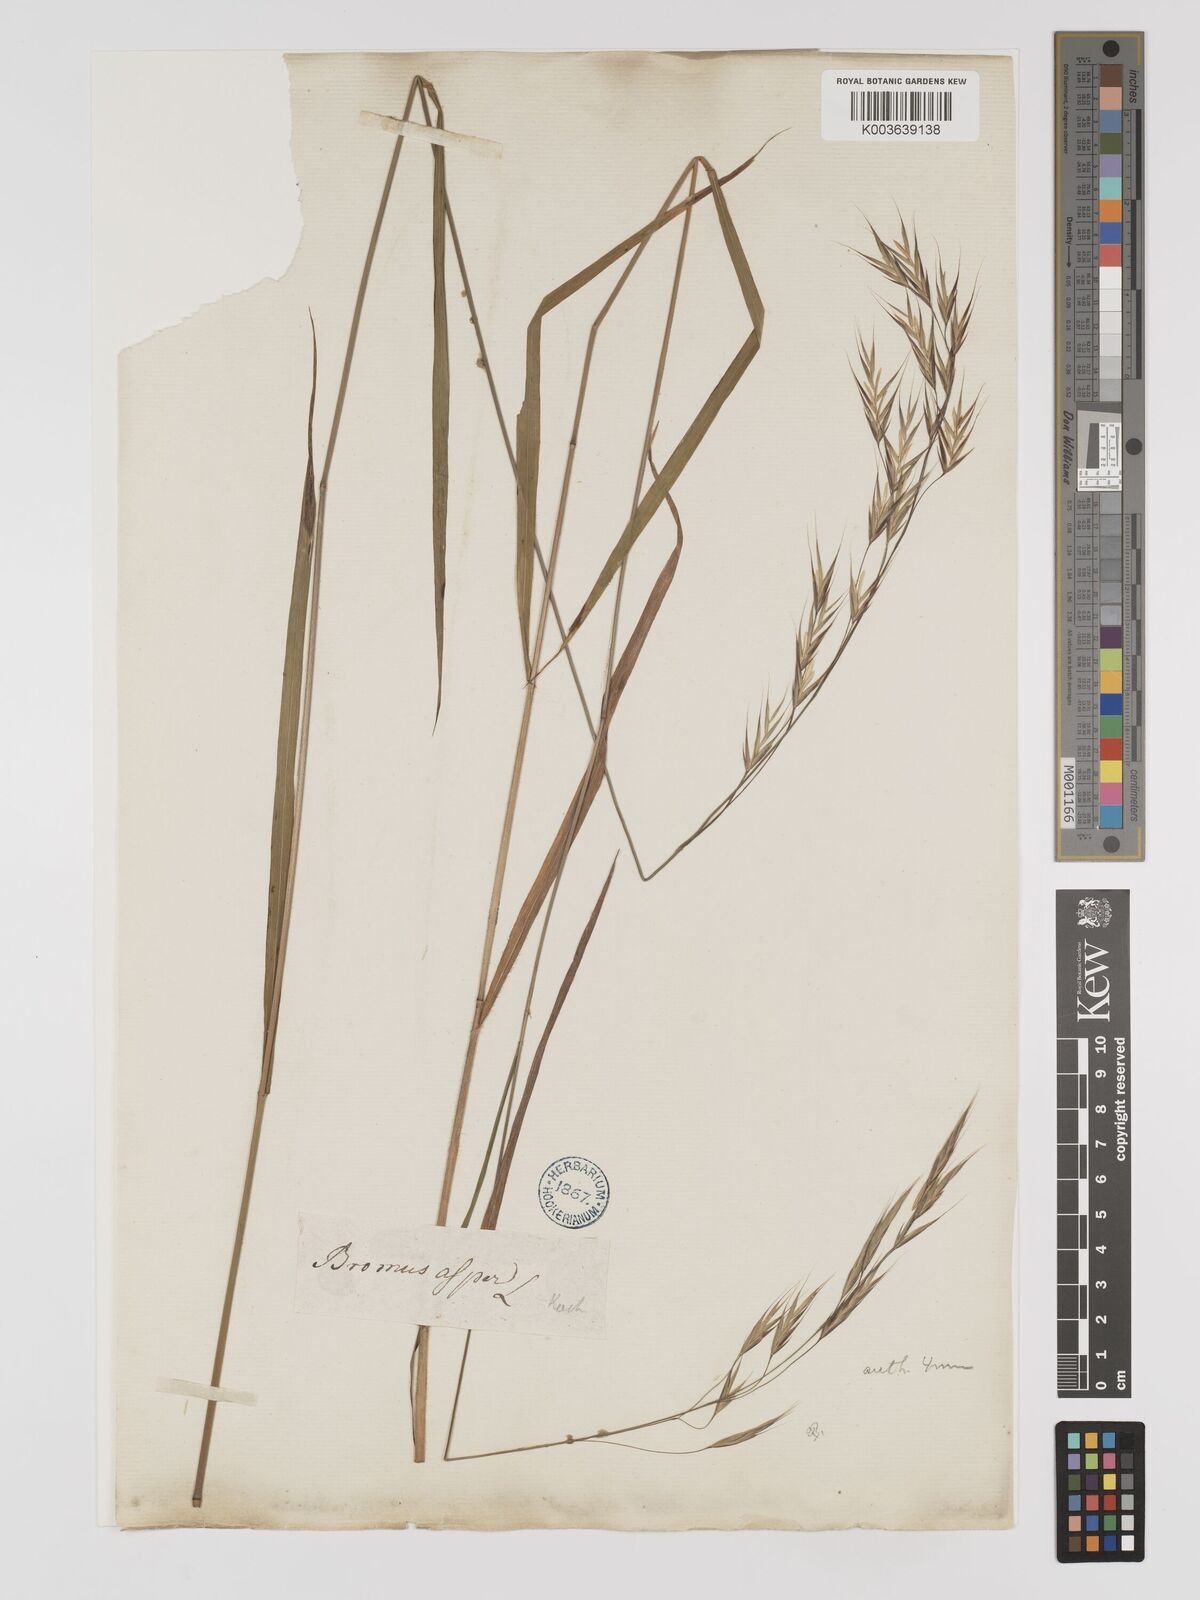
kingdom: Plantae
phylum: Tracheophyta
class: Liliopsida
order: Poales
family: Poaceae
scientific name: Poaceae
